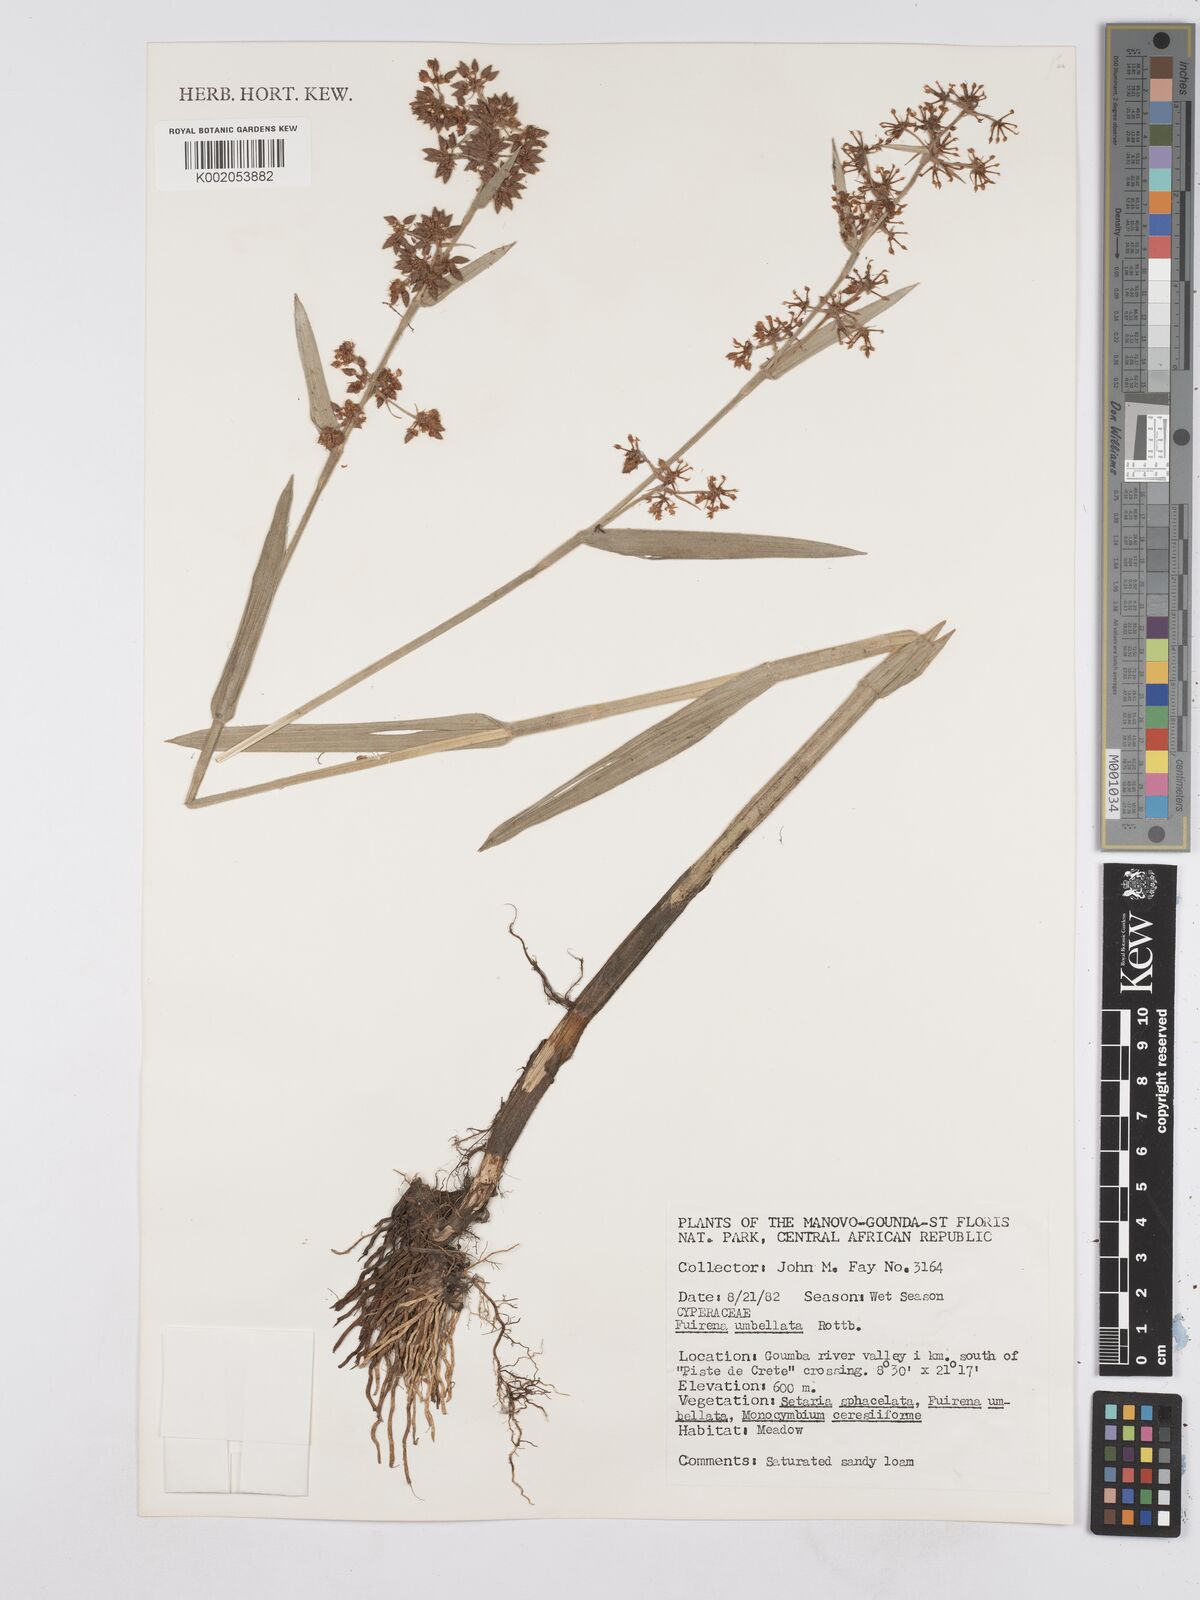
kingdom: Plantae
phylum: Tracheophyta
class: Liliopsida
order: Poales
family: Cyperaceae
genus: Fuirena
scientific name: Fuirena umbellata
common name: Yefen
